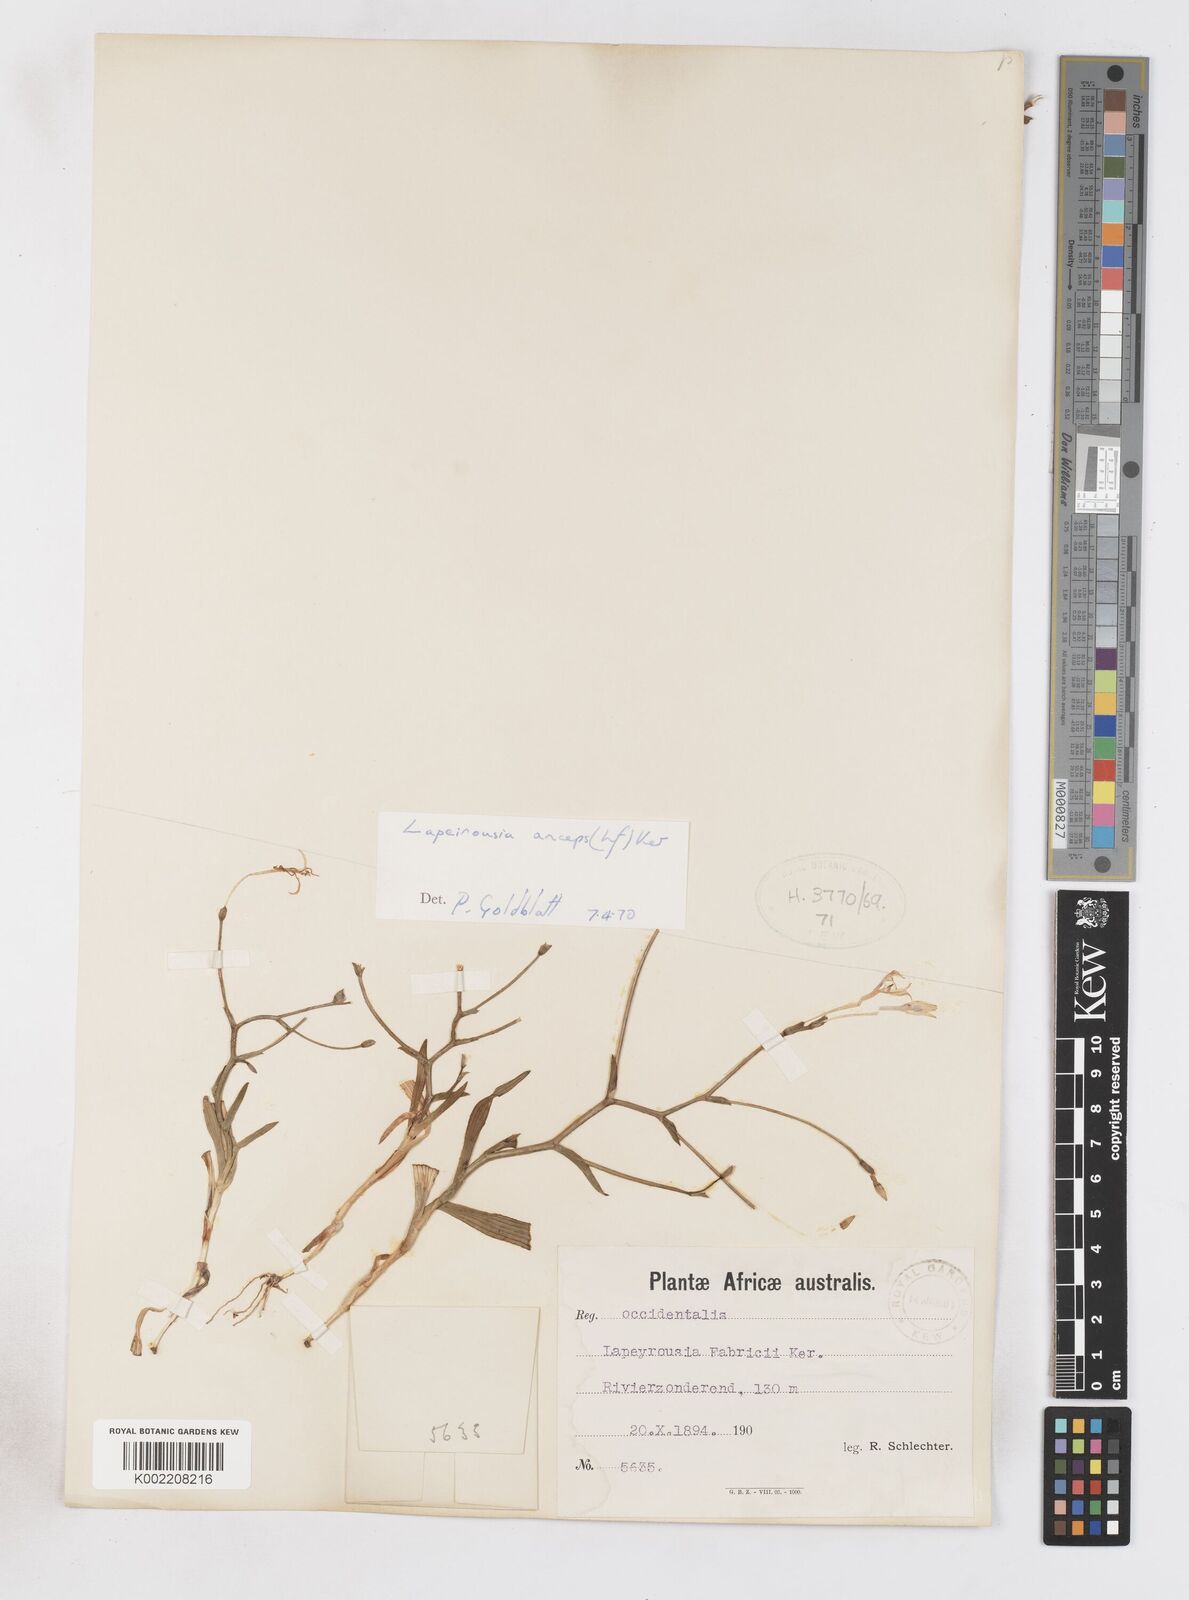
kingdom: Plantae
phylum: Tracheophyta
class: Liliopsida
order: Asparagales
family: Iridaceae
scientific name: Iridaceae
